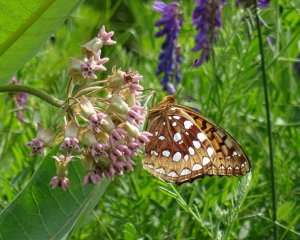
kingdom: Animalia
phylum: Arthropoda
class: Insecta
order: Lepidoptera
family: Nymphalidae
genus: Speyeria
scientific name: Speyeria cybele
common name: Great Spangled Fritillary
